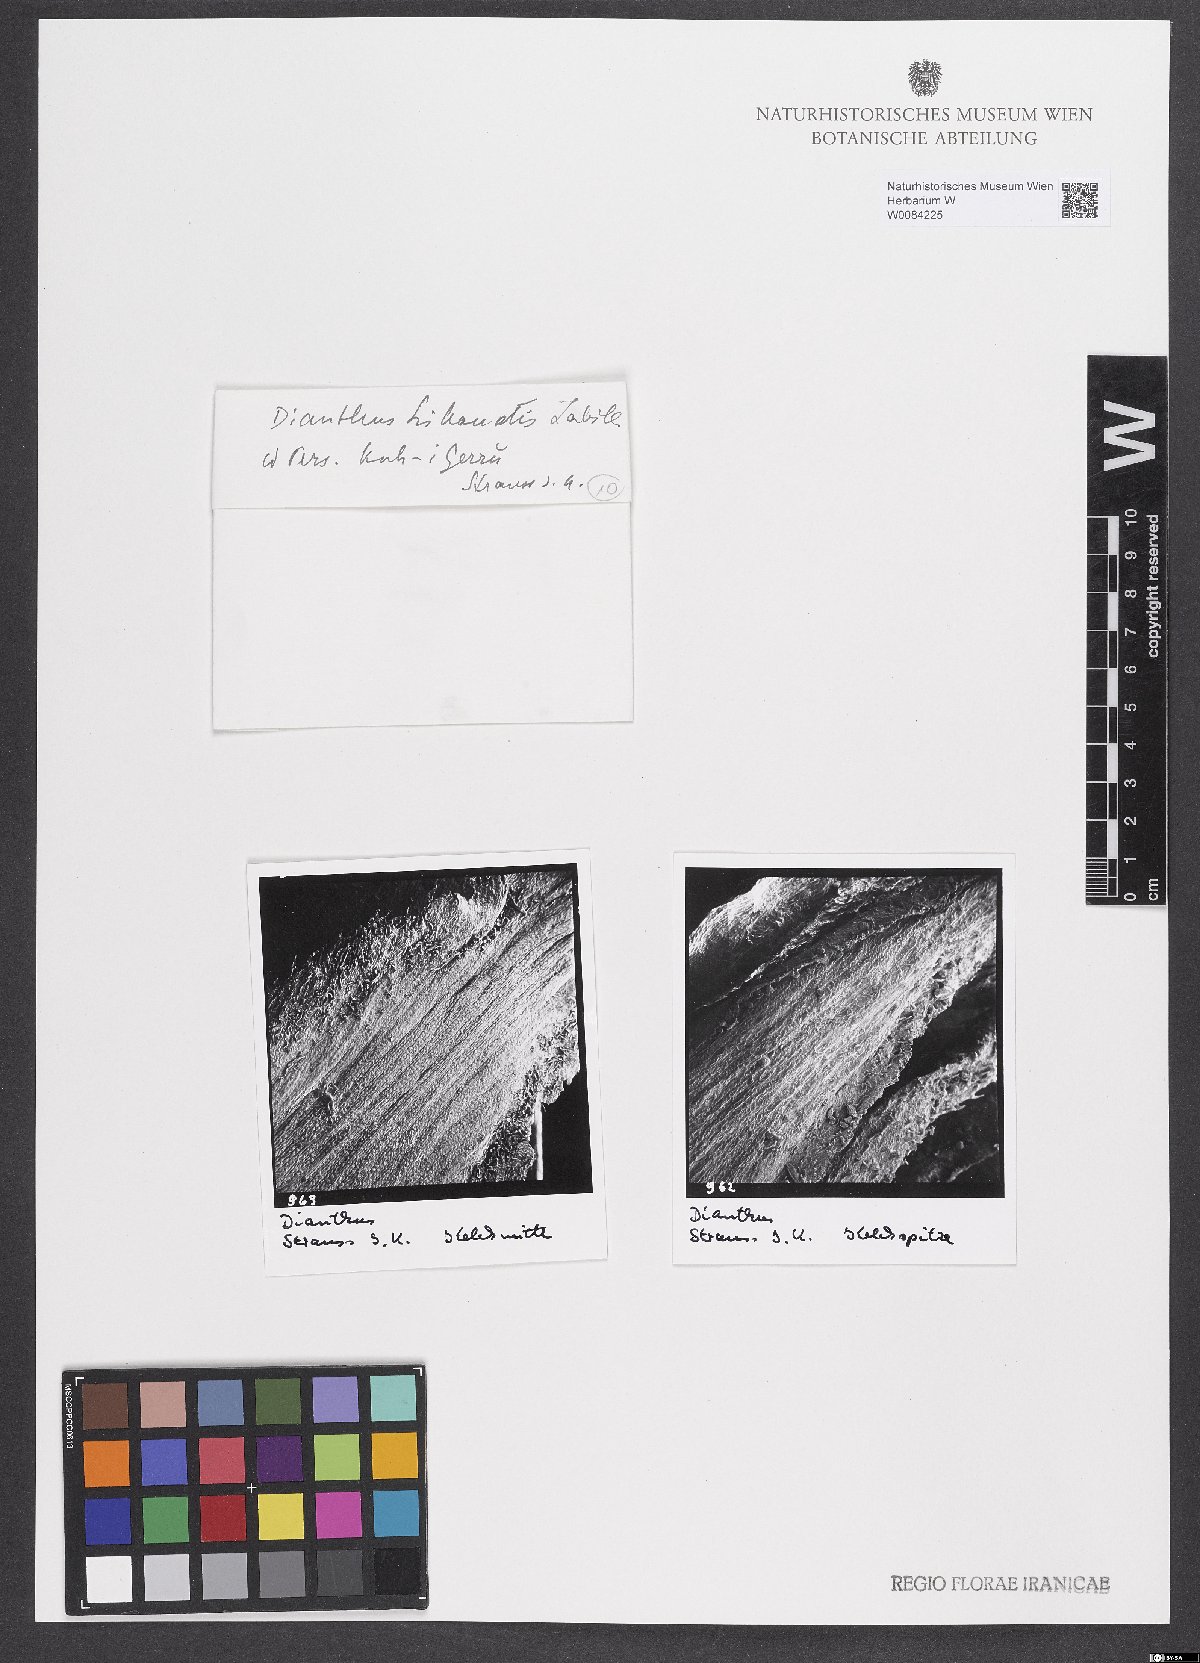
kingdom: Plantae
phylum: Tracheophyta
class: Magnoliopsida
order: Caryophyllales
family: Caryophyllaceae
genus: Dianthus
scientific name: Dianthus libanotis
